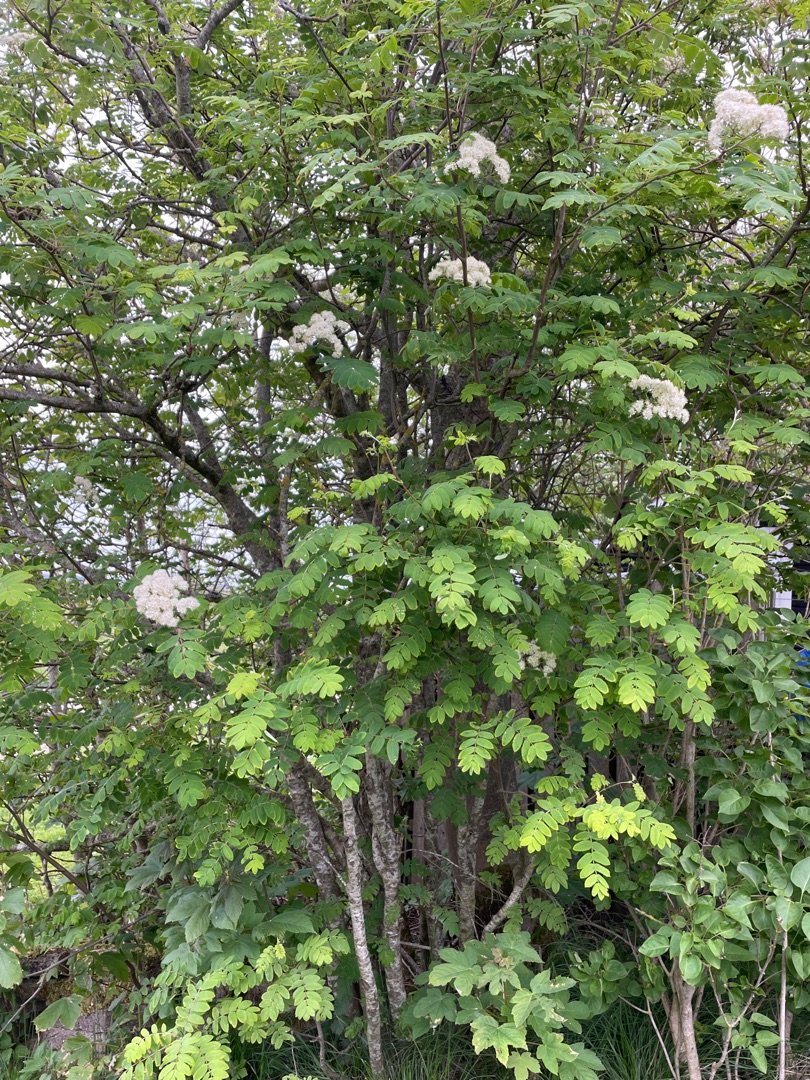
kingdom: Plantae
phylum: Tracheophyta
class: Magnoliopsida
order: Rosales
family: Rosaceae
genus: Sorbus
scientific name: Sorbus aucuparia
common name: Almindelig røn
